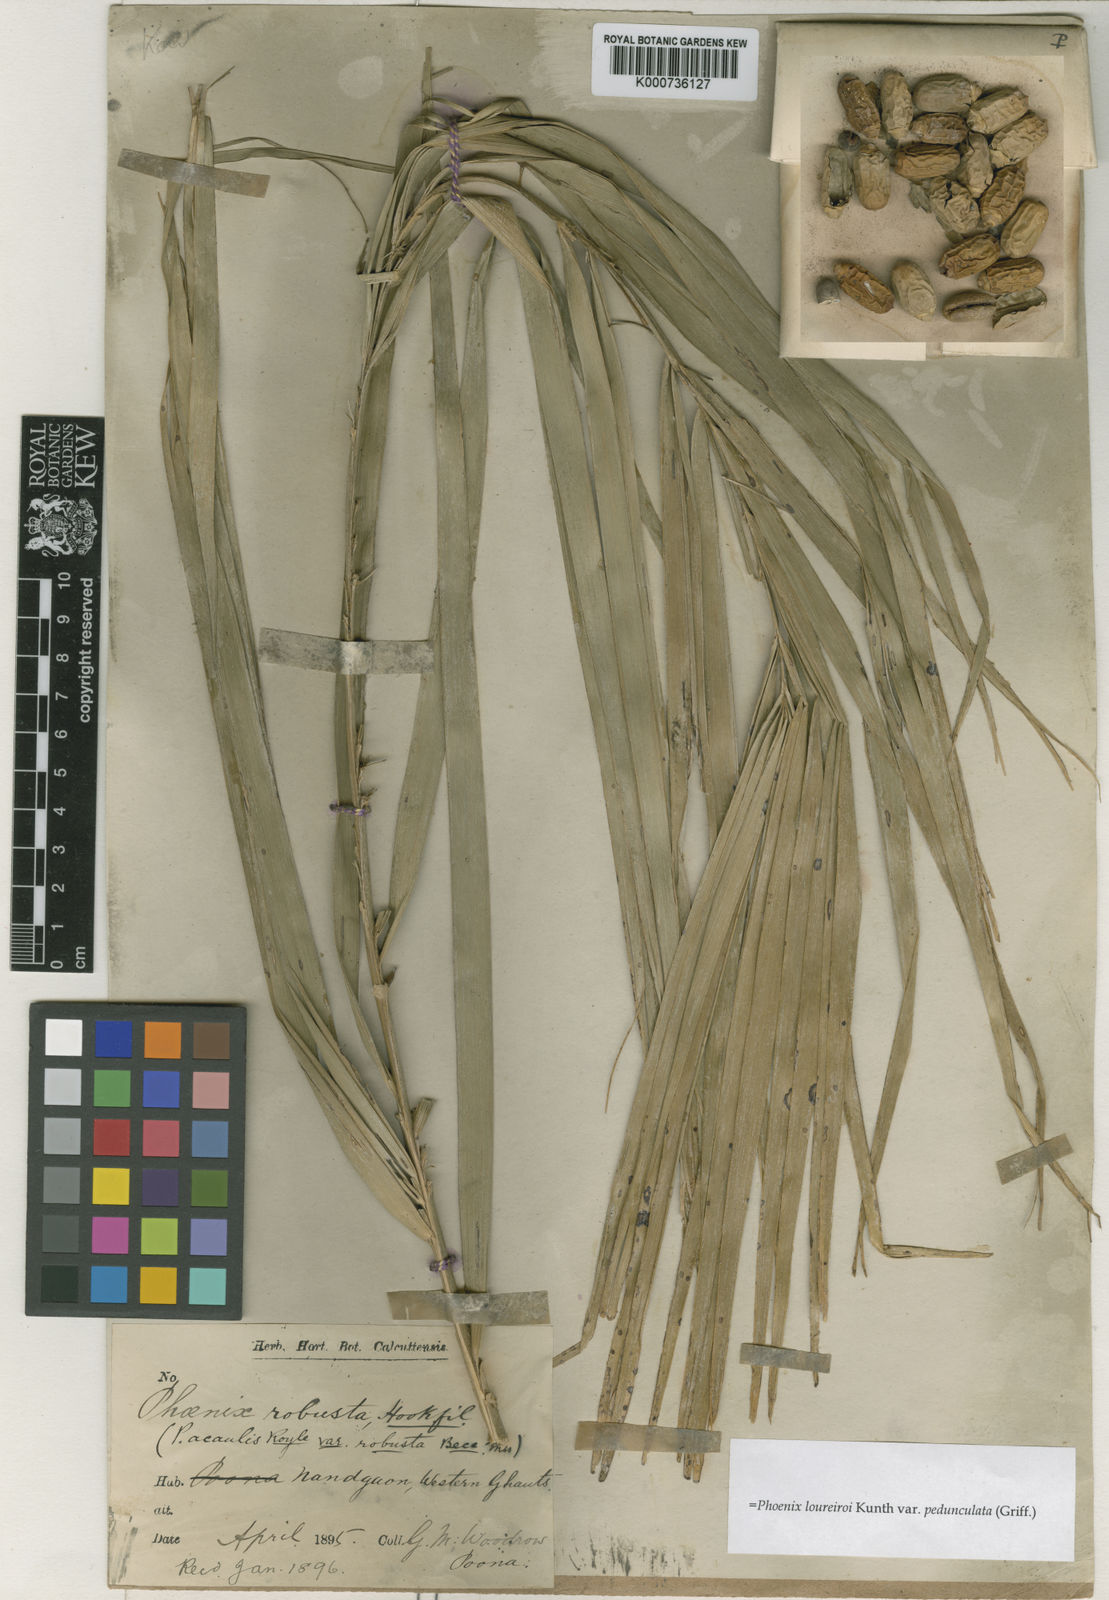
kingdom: Plantae
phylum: Tracheophyta
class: Liliopsida
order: Arecales
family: Arecaceae
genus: Phoenix
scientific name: Phoenix loureiroi
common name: Loureiro's palm
